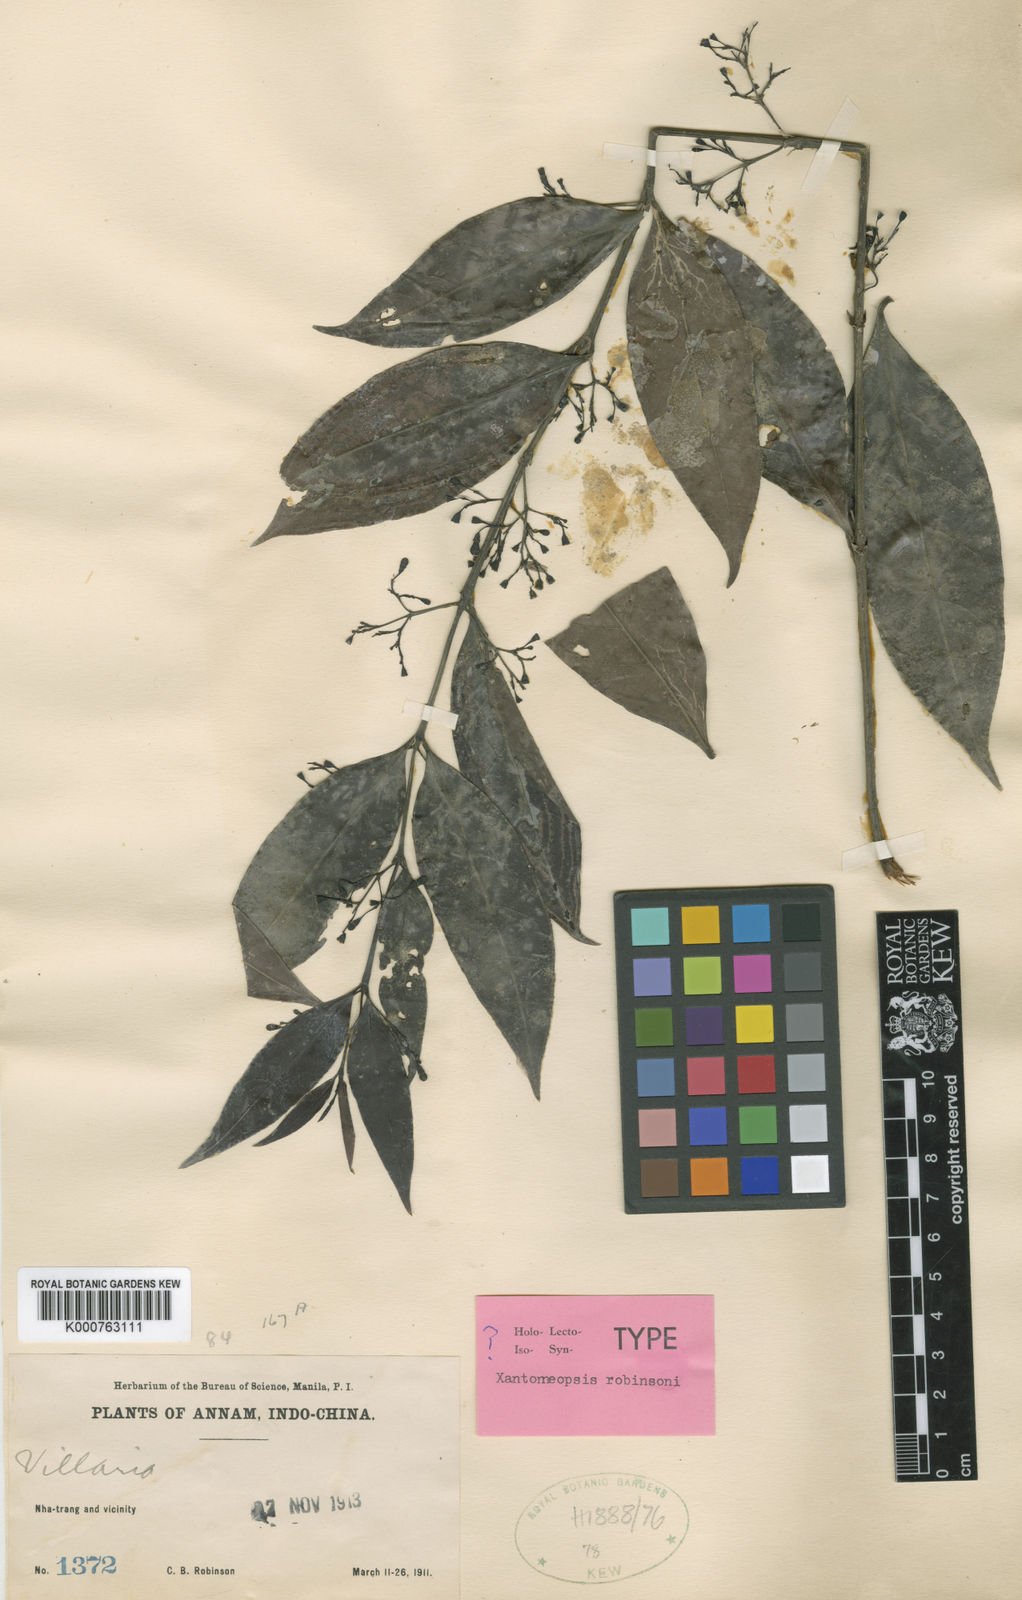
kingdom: Plantae
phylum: Tracheophyta
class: Magnoliopsida
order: Gentianales
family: Rubiaceae
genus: Xantonneopsis
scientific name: Xantonneopsis robinsonii
